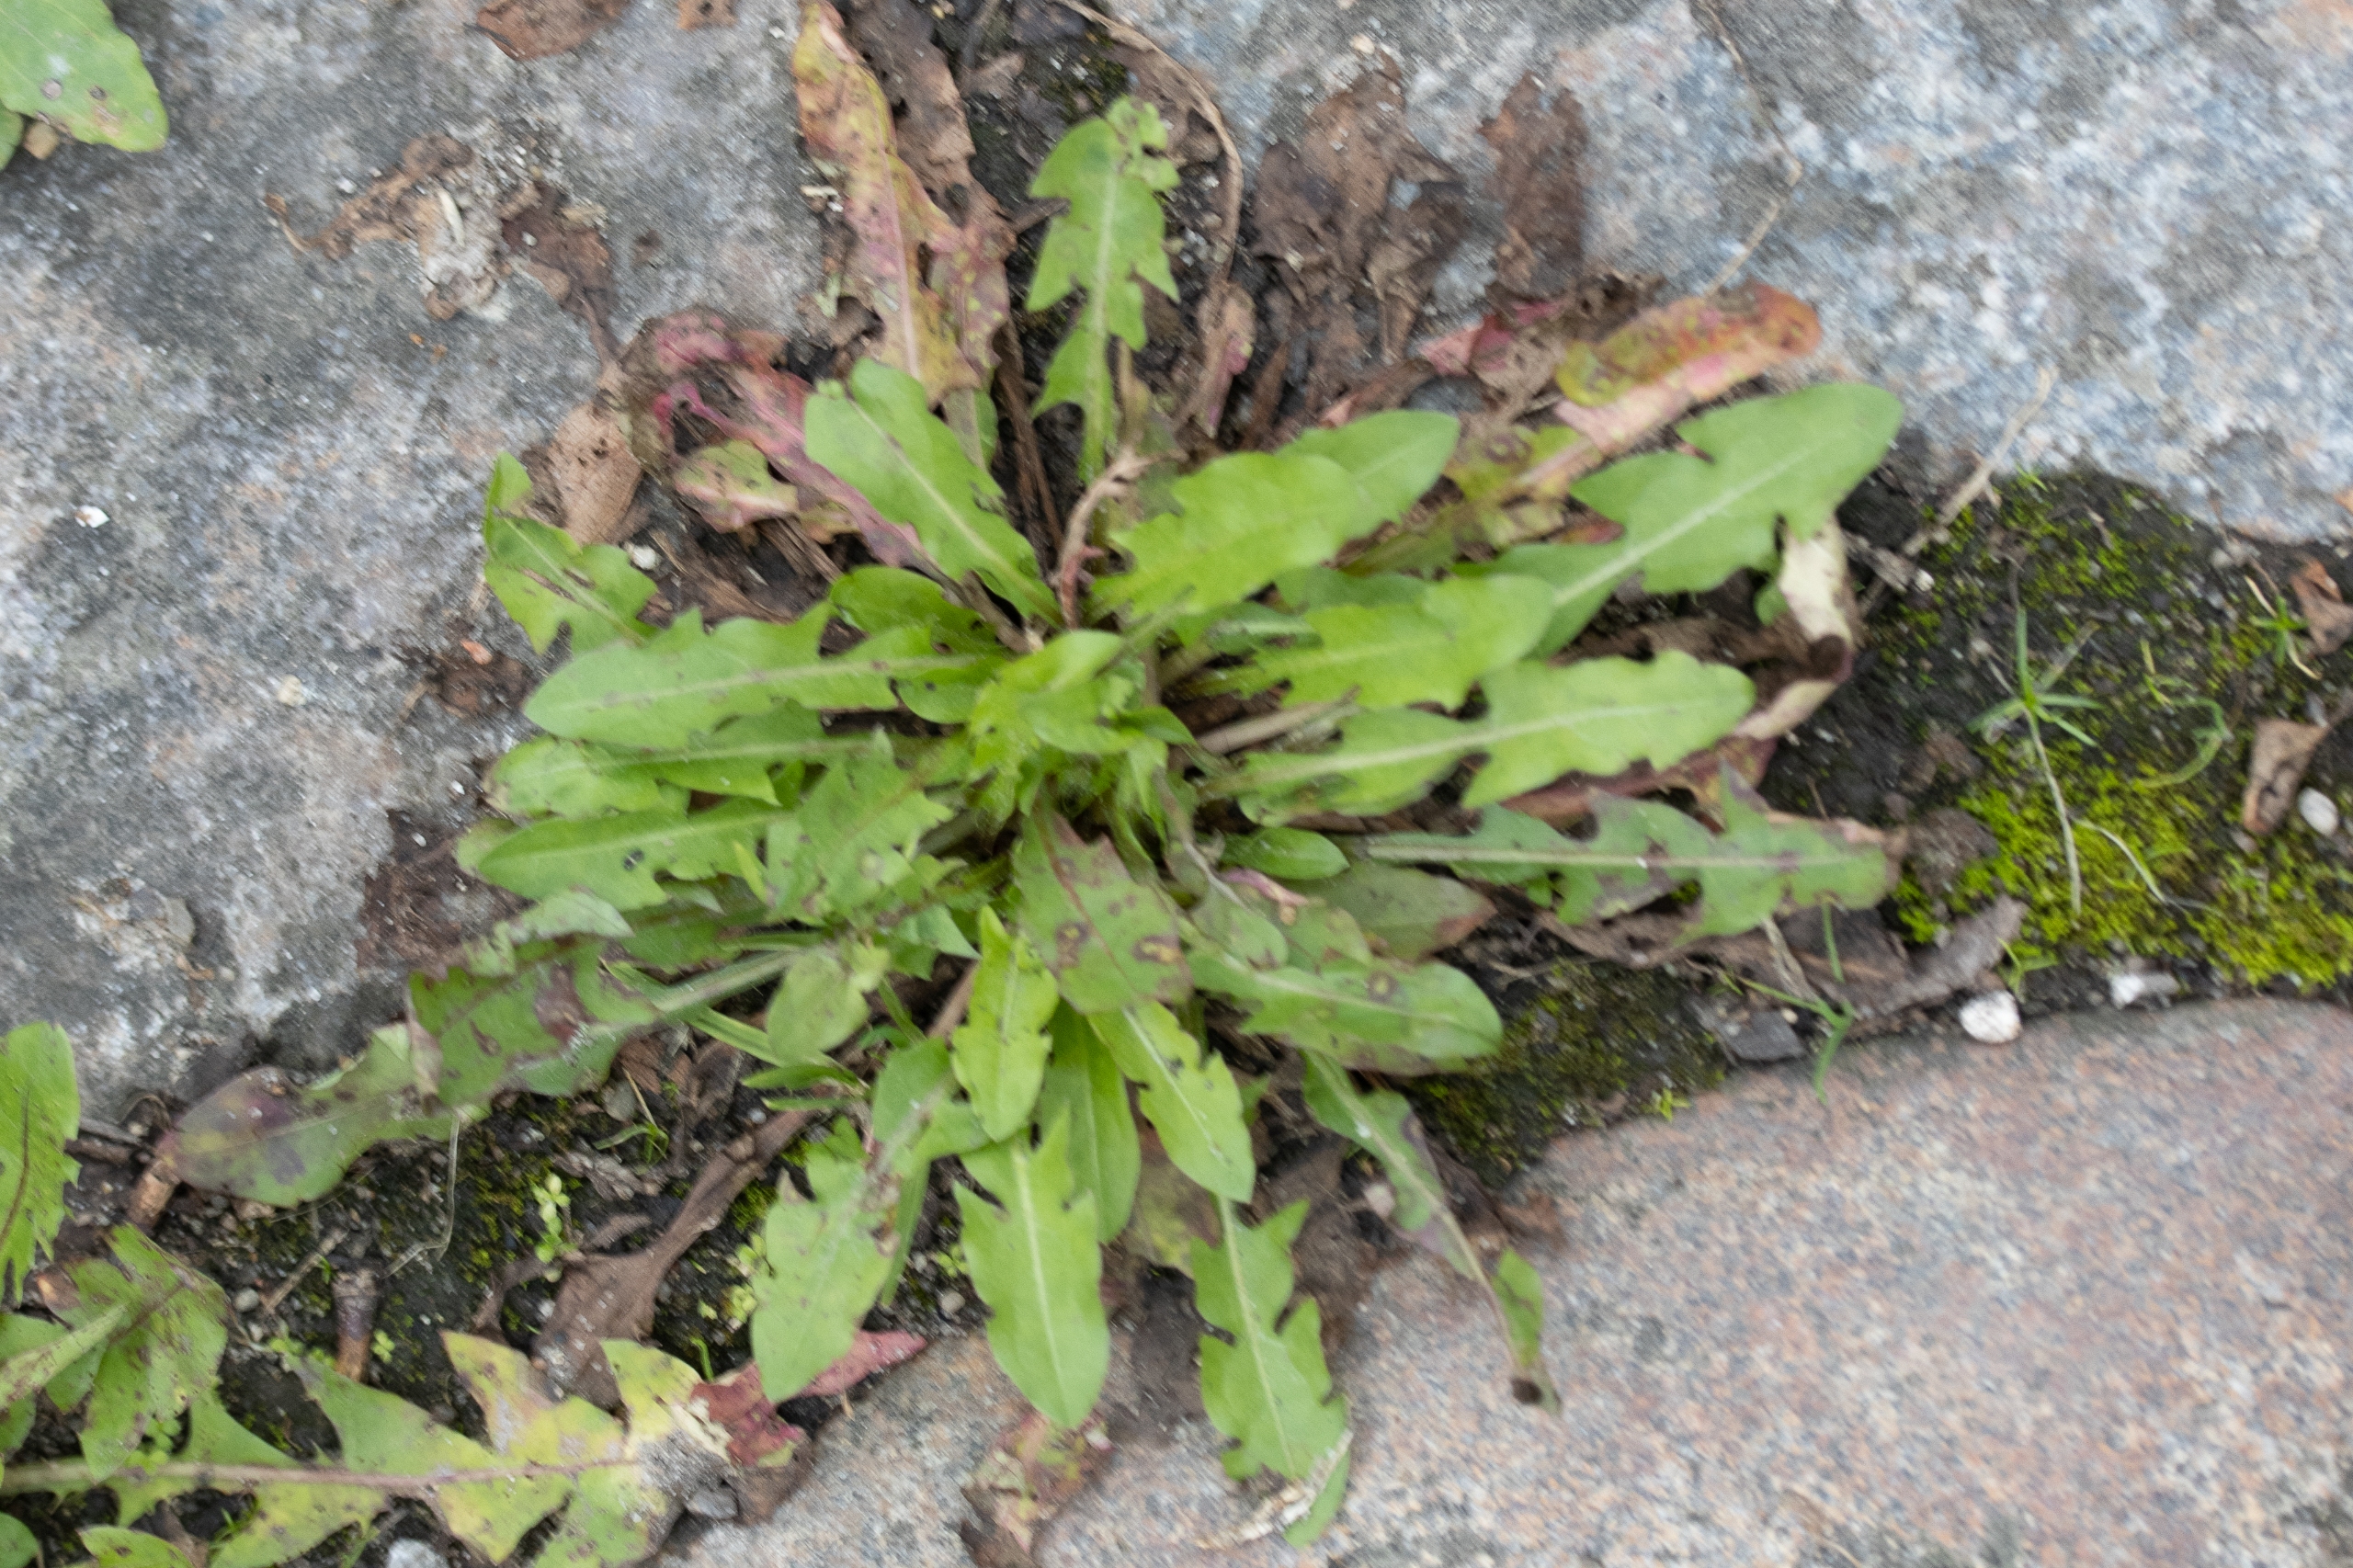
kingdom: Plantae
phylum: Tracheophyta
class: Magnoliopsida
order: Asterales
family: Asteraceae
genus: Taraxacum
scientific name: Taraxacum
